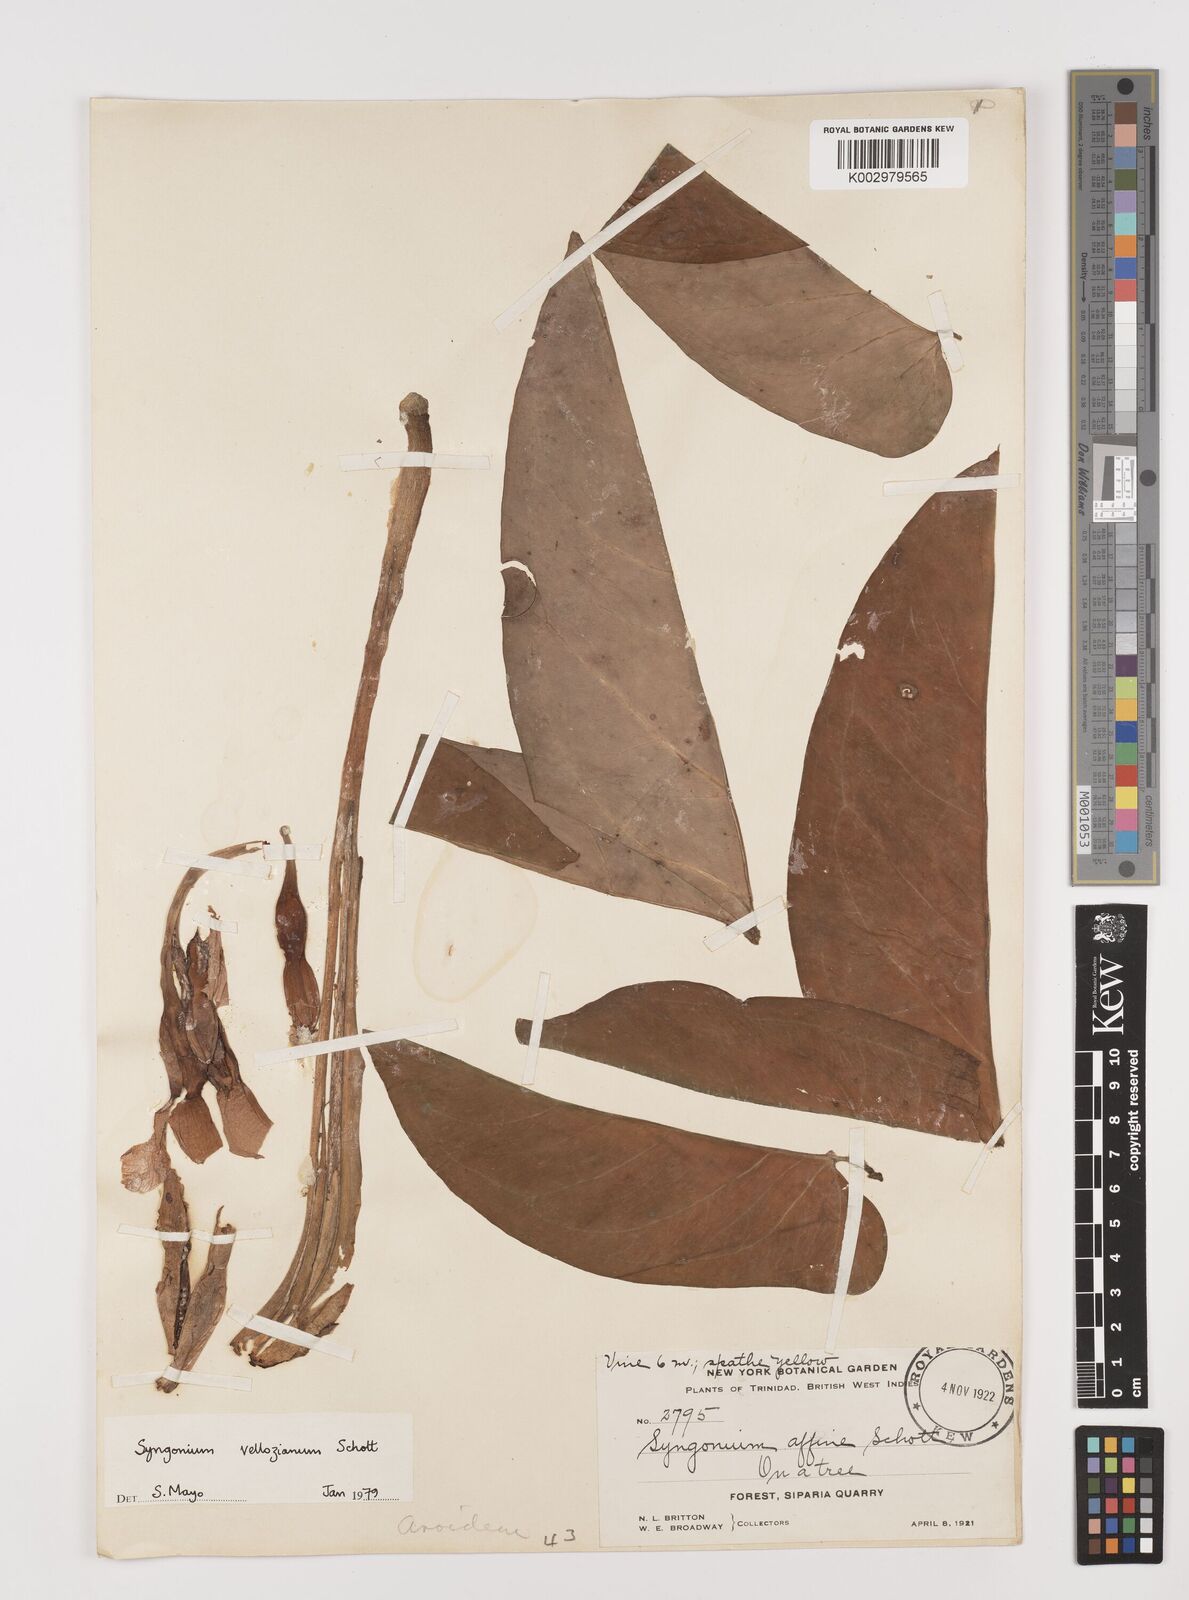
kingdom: Plantae
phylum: Tracheophyta
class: Liliopsida
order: Alismatales
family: Araceae
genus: Syngonium
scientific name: Syngonium podophyllum
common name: American evergreen
